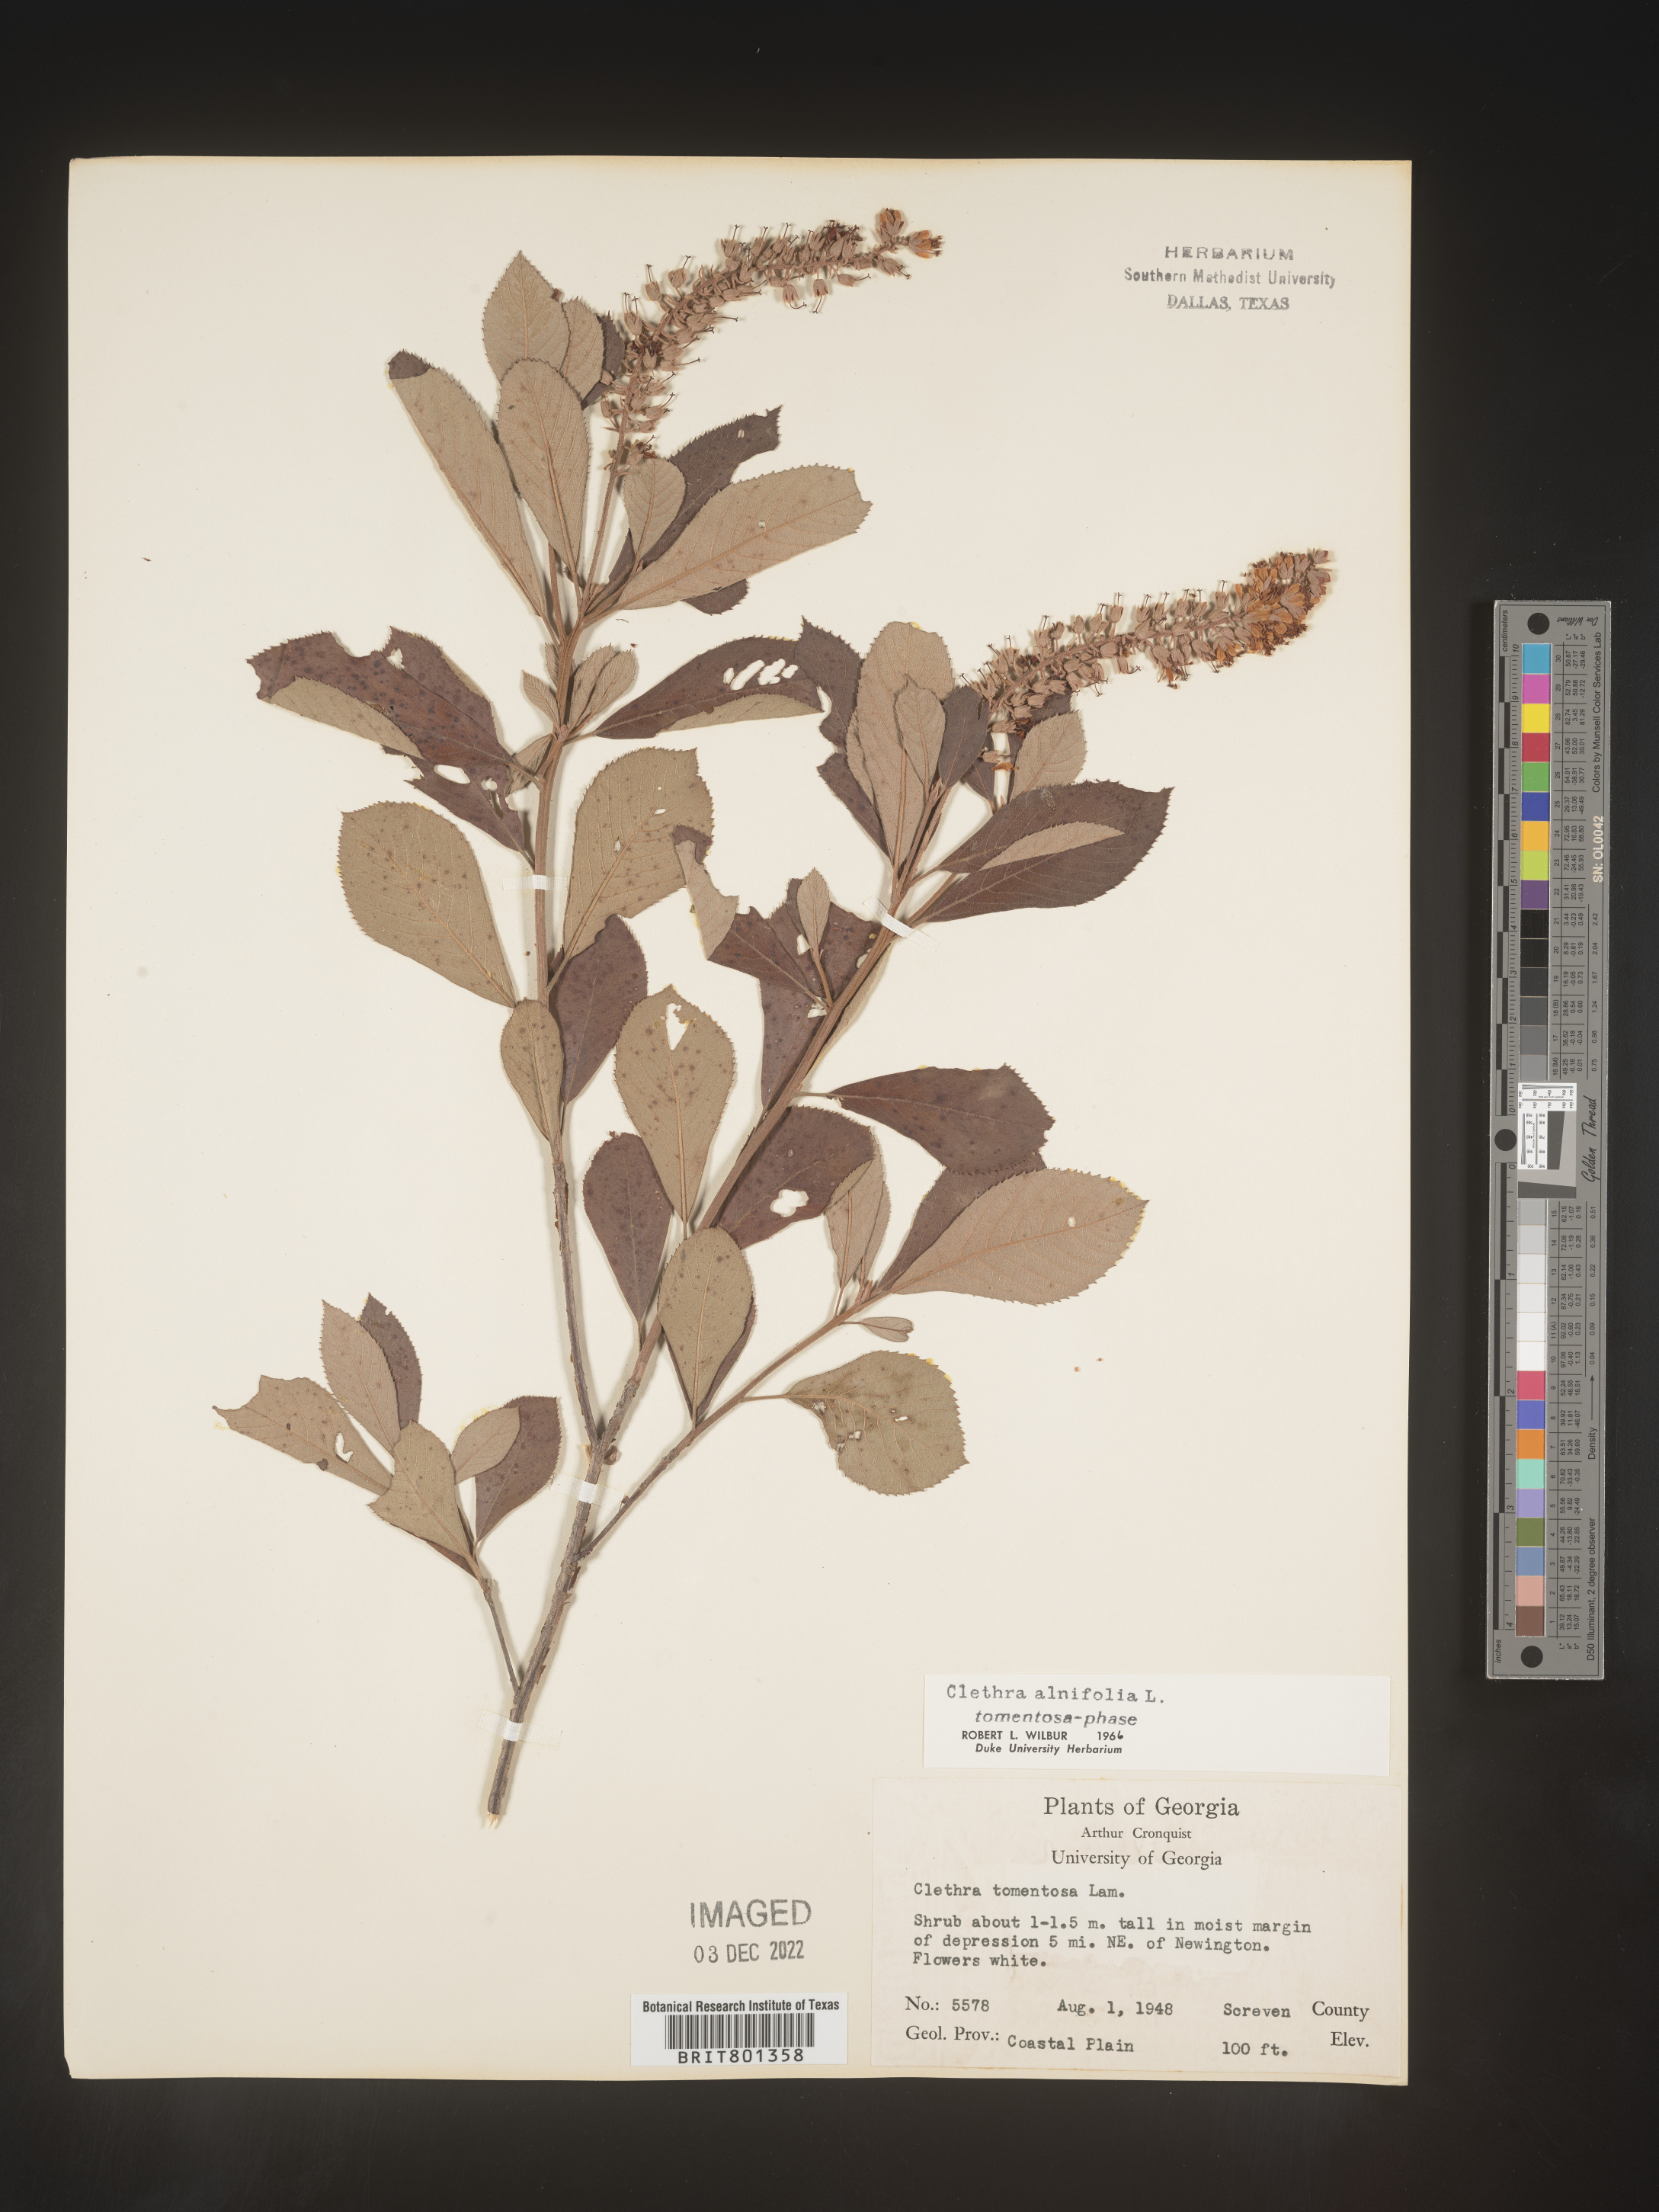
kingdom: Plantae
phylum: Tracheophyta
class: Magnoliopsida
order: Ericales
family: Clethraceae
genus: Clethra
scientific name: Clethra alnifolia
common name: Sweet pepperbush
